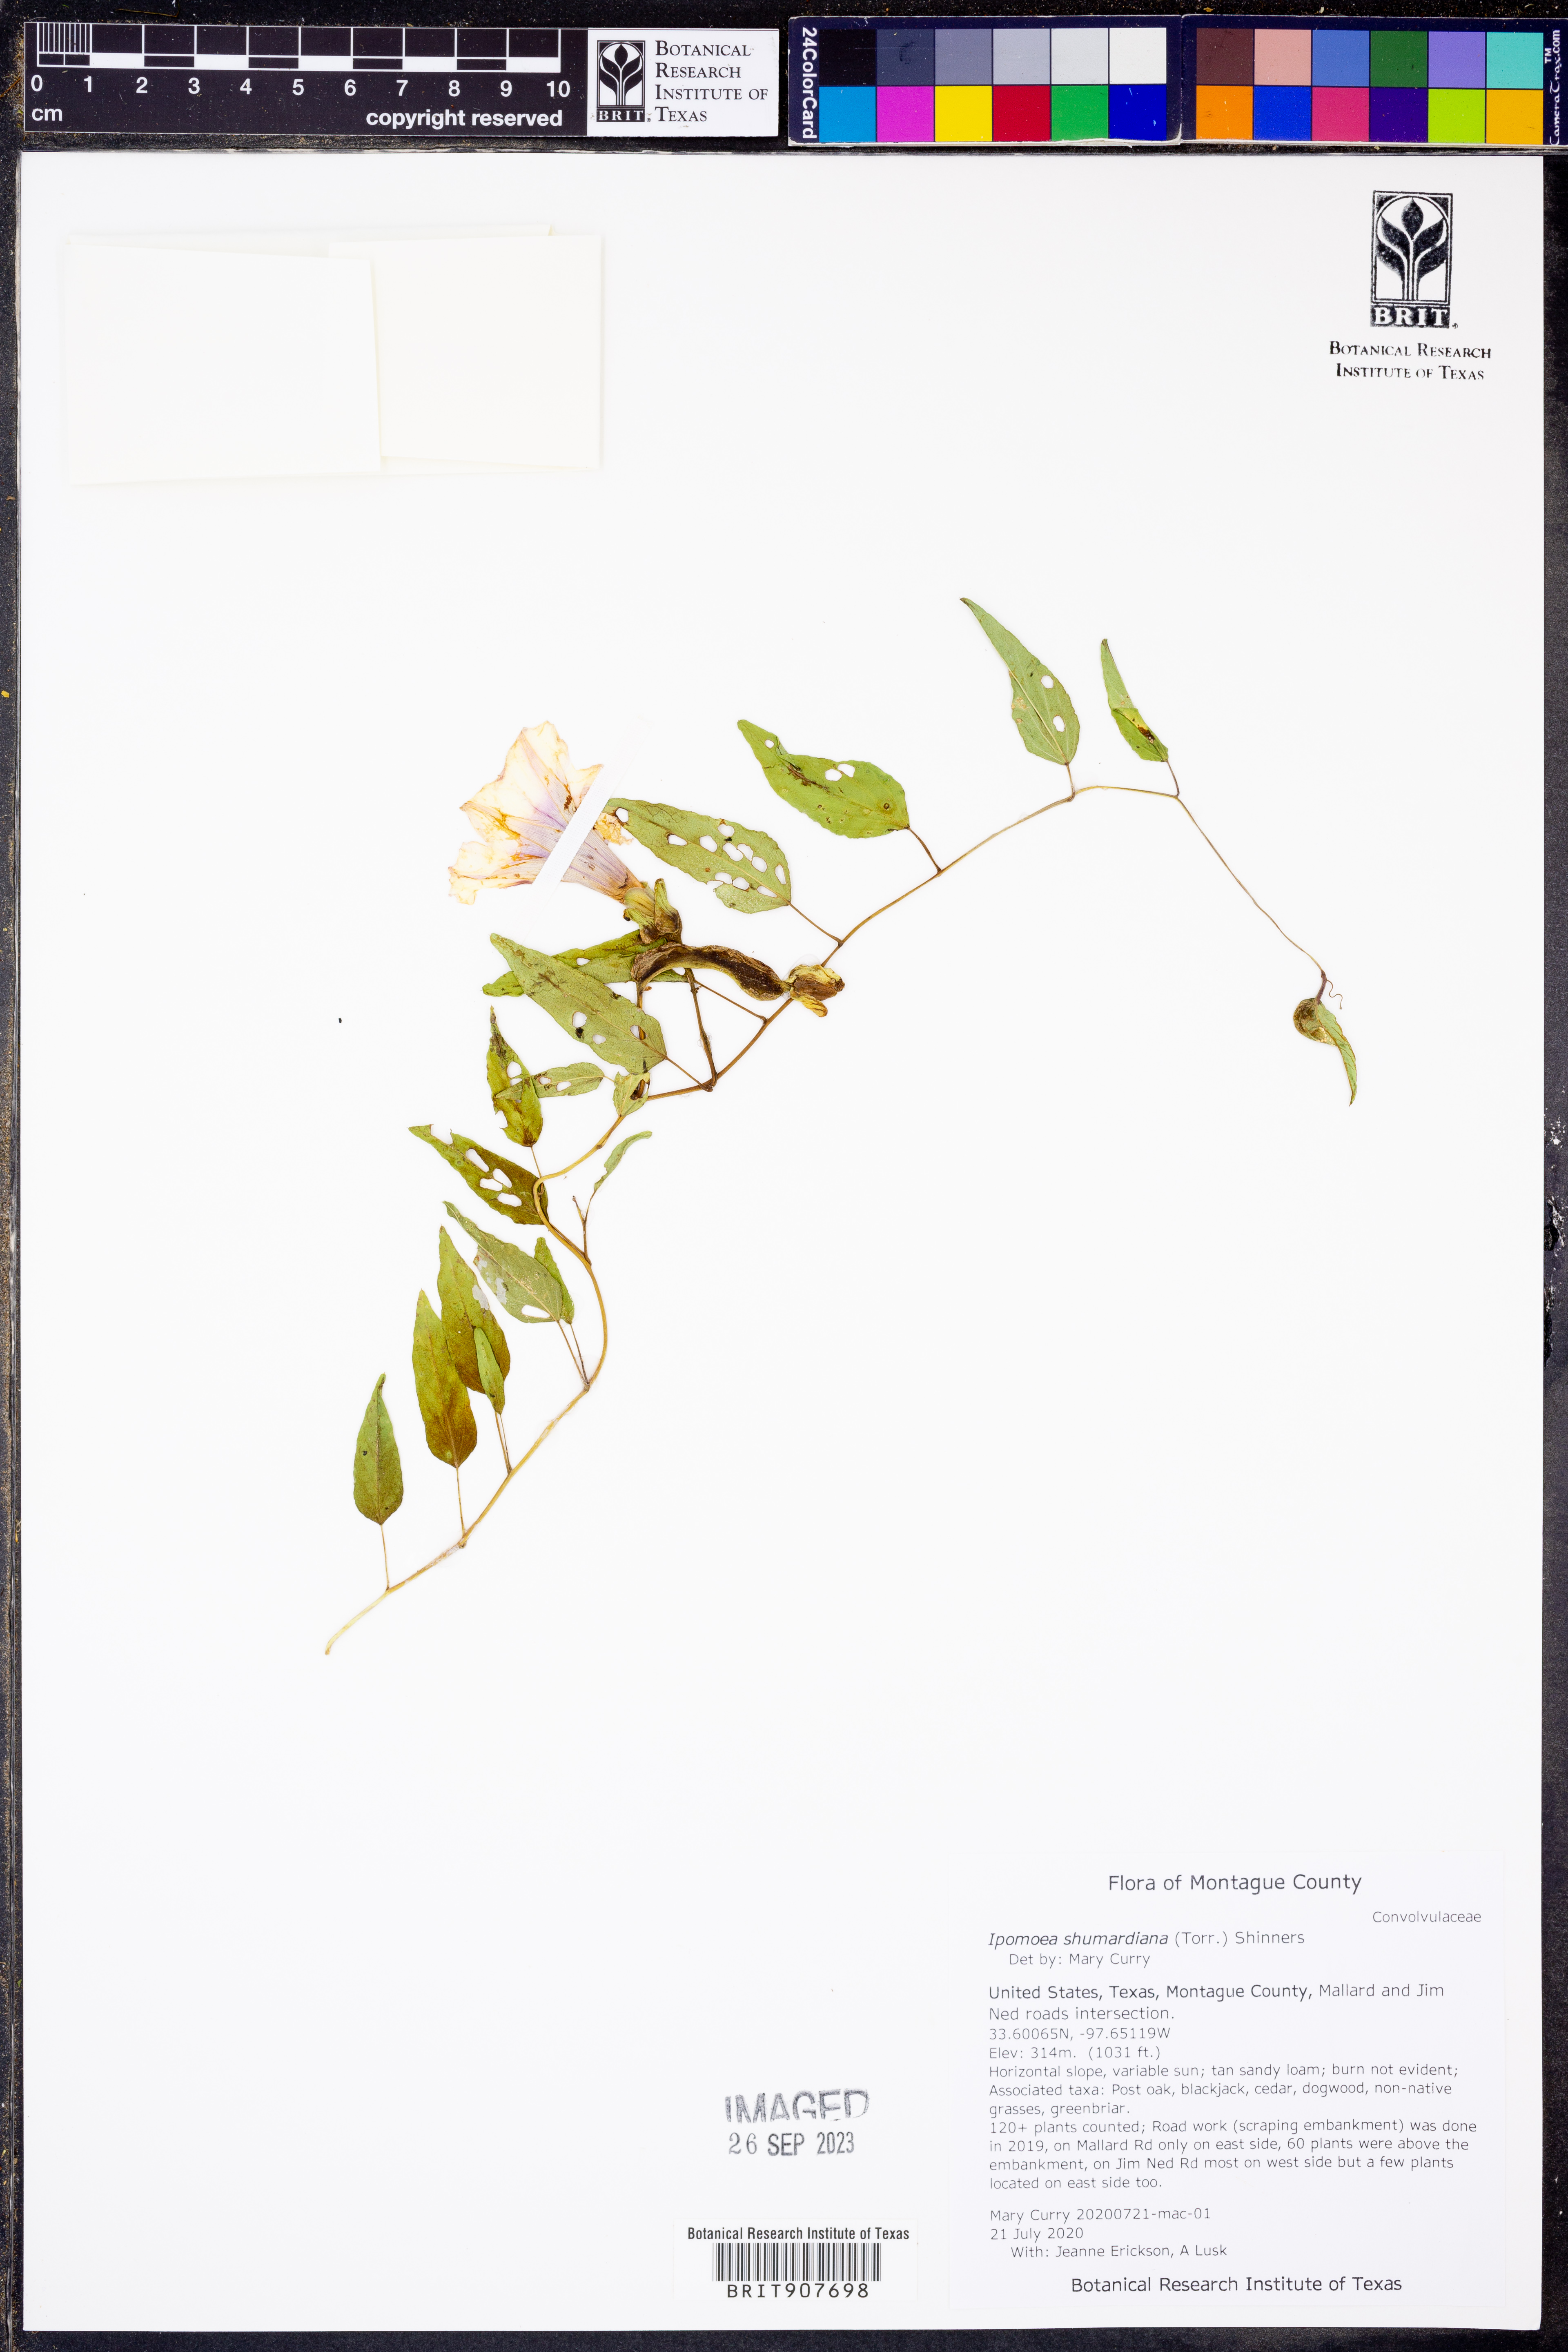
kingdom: Plantae
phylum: Tracheophyta
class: Magnoliopsida
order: Solanales
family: Convolvulaceae
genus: Ipomoea
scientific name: Ipomoea shumardiana
